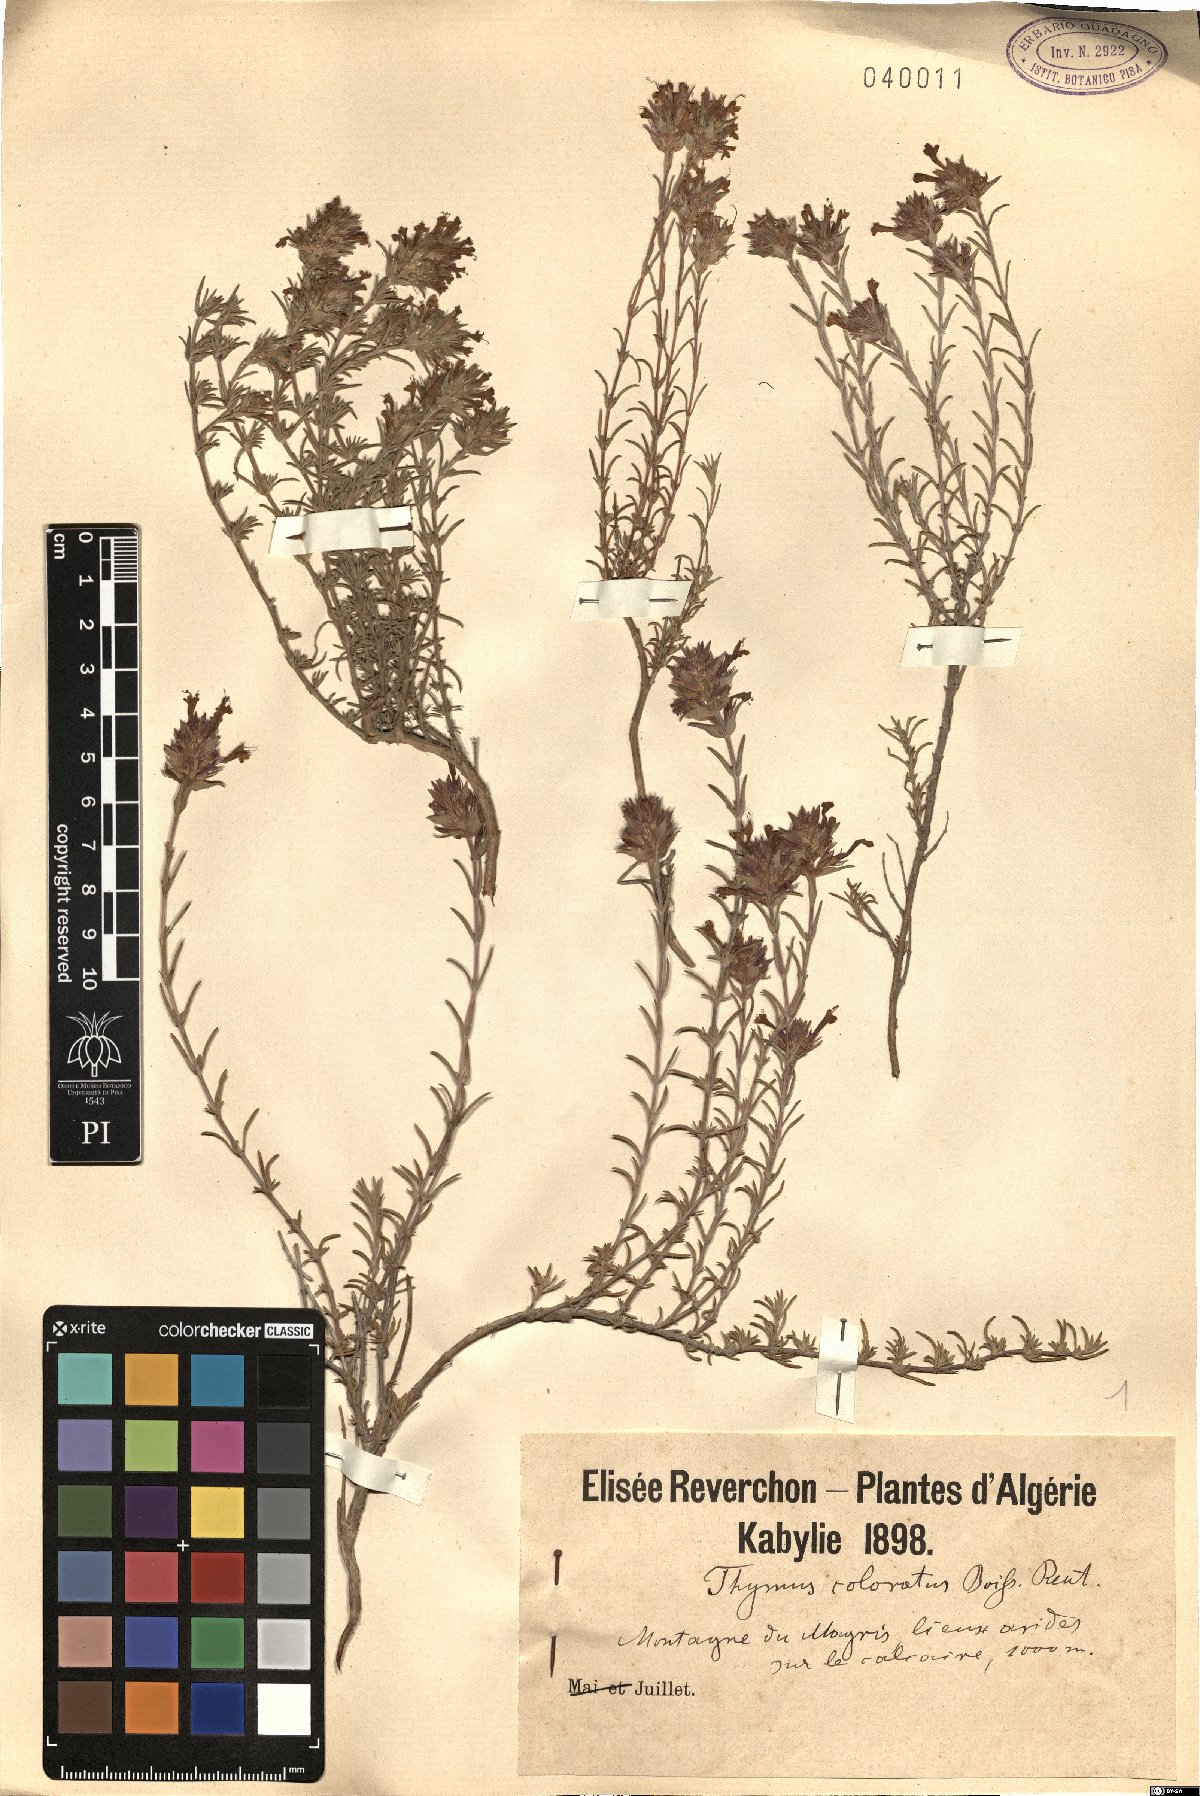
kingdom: Plantae
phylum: Tracheophyta
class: Magnoliopsida
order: Lamiales
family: Lamiaceae
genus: Thymus
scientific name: Thymus munbyanus
